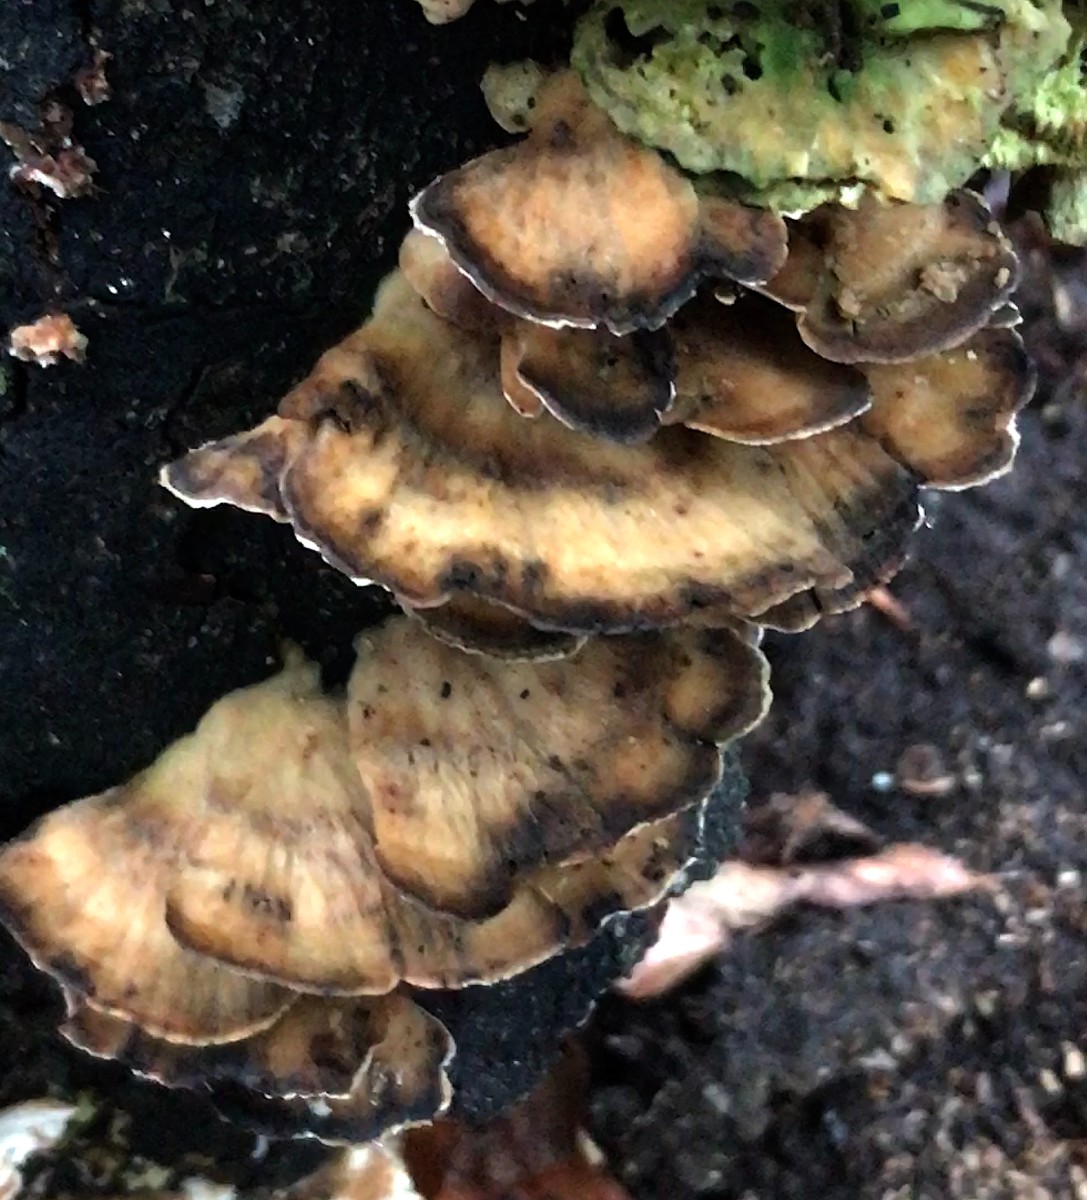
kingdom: Fungi
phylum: Basidiomycota
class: Agaricomycetes
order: Polyporales
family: Phanerochaetaceae
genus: Bjerkandera
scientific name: Bjerkandera adusta
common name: sveden sodporesvamp
